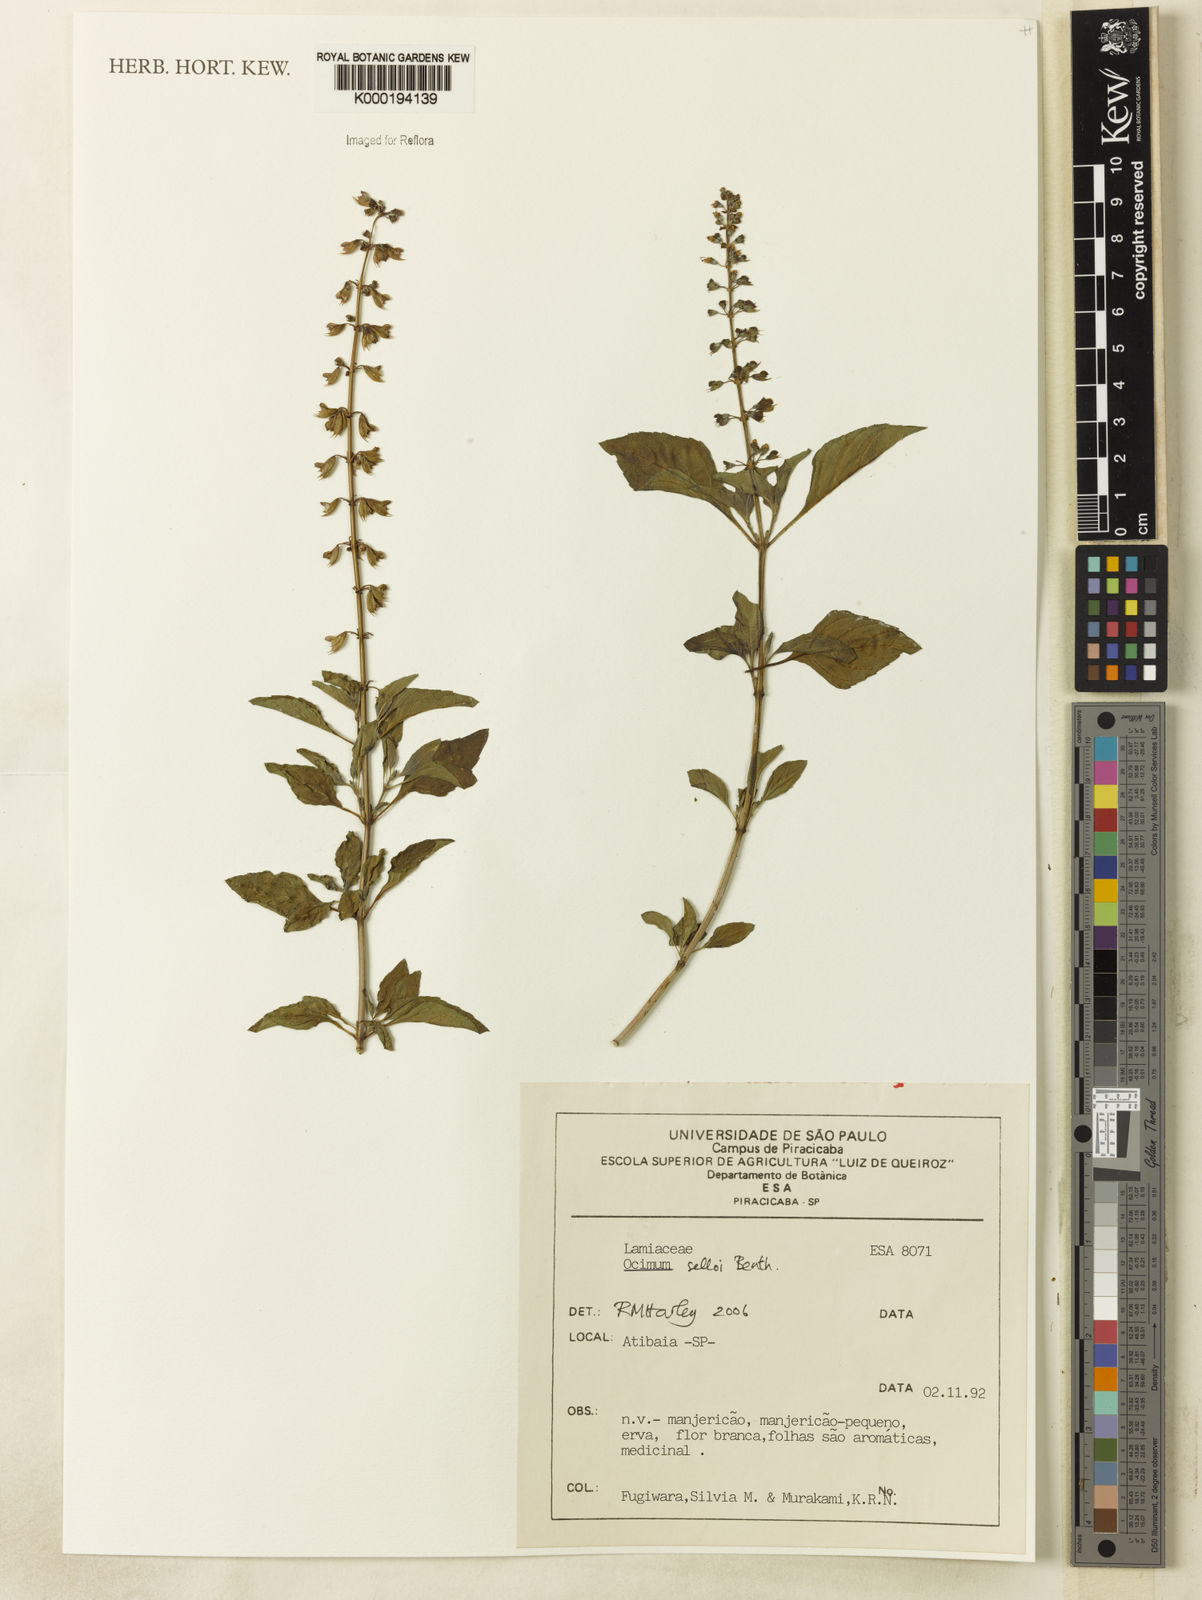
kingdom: Plantae
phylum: Tracheophyta
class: Magnoliopsida
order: Lamiales
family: Lamiaceae
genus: Ocimum
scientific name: Ocimum carnosum
